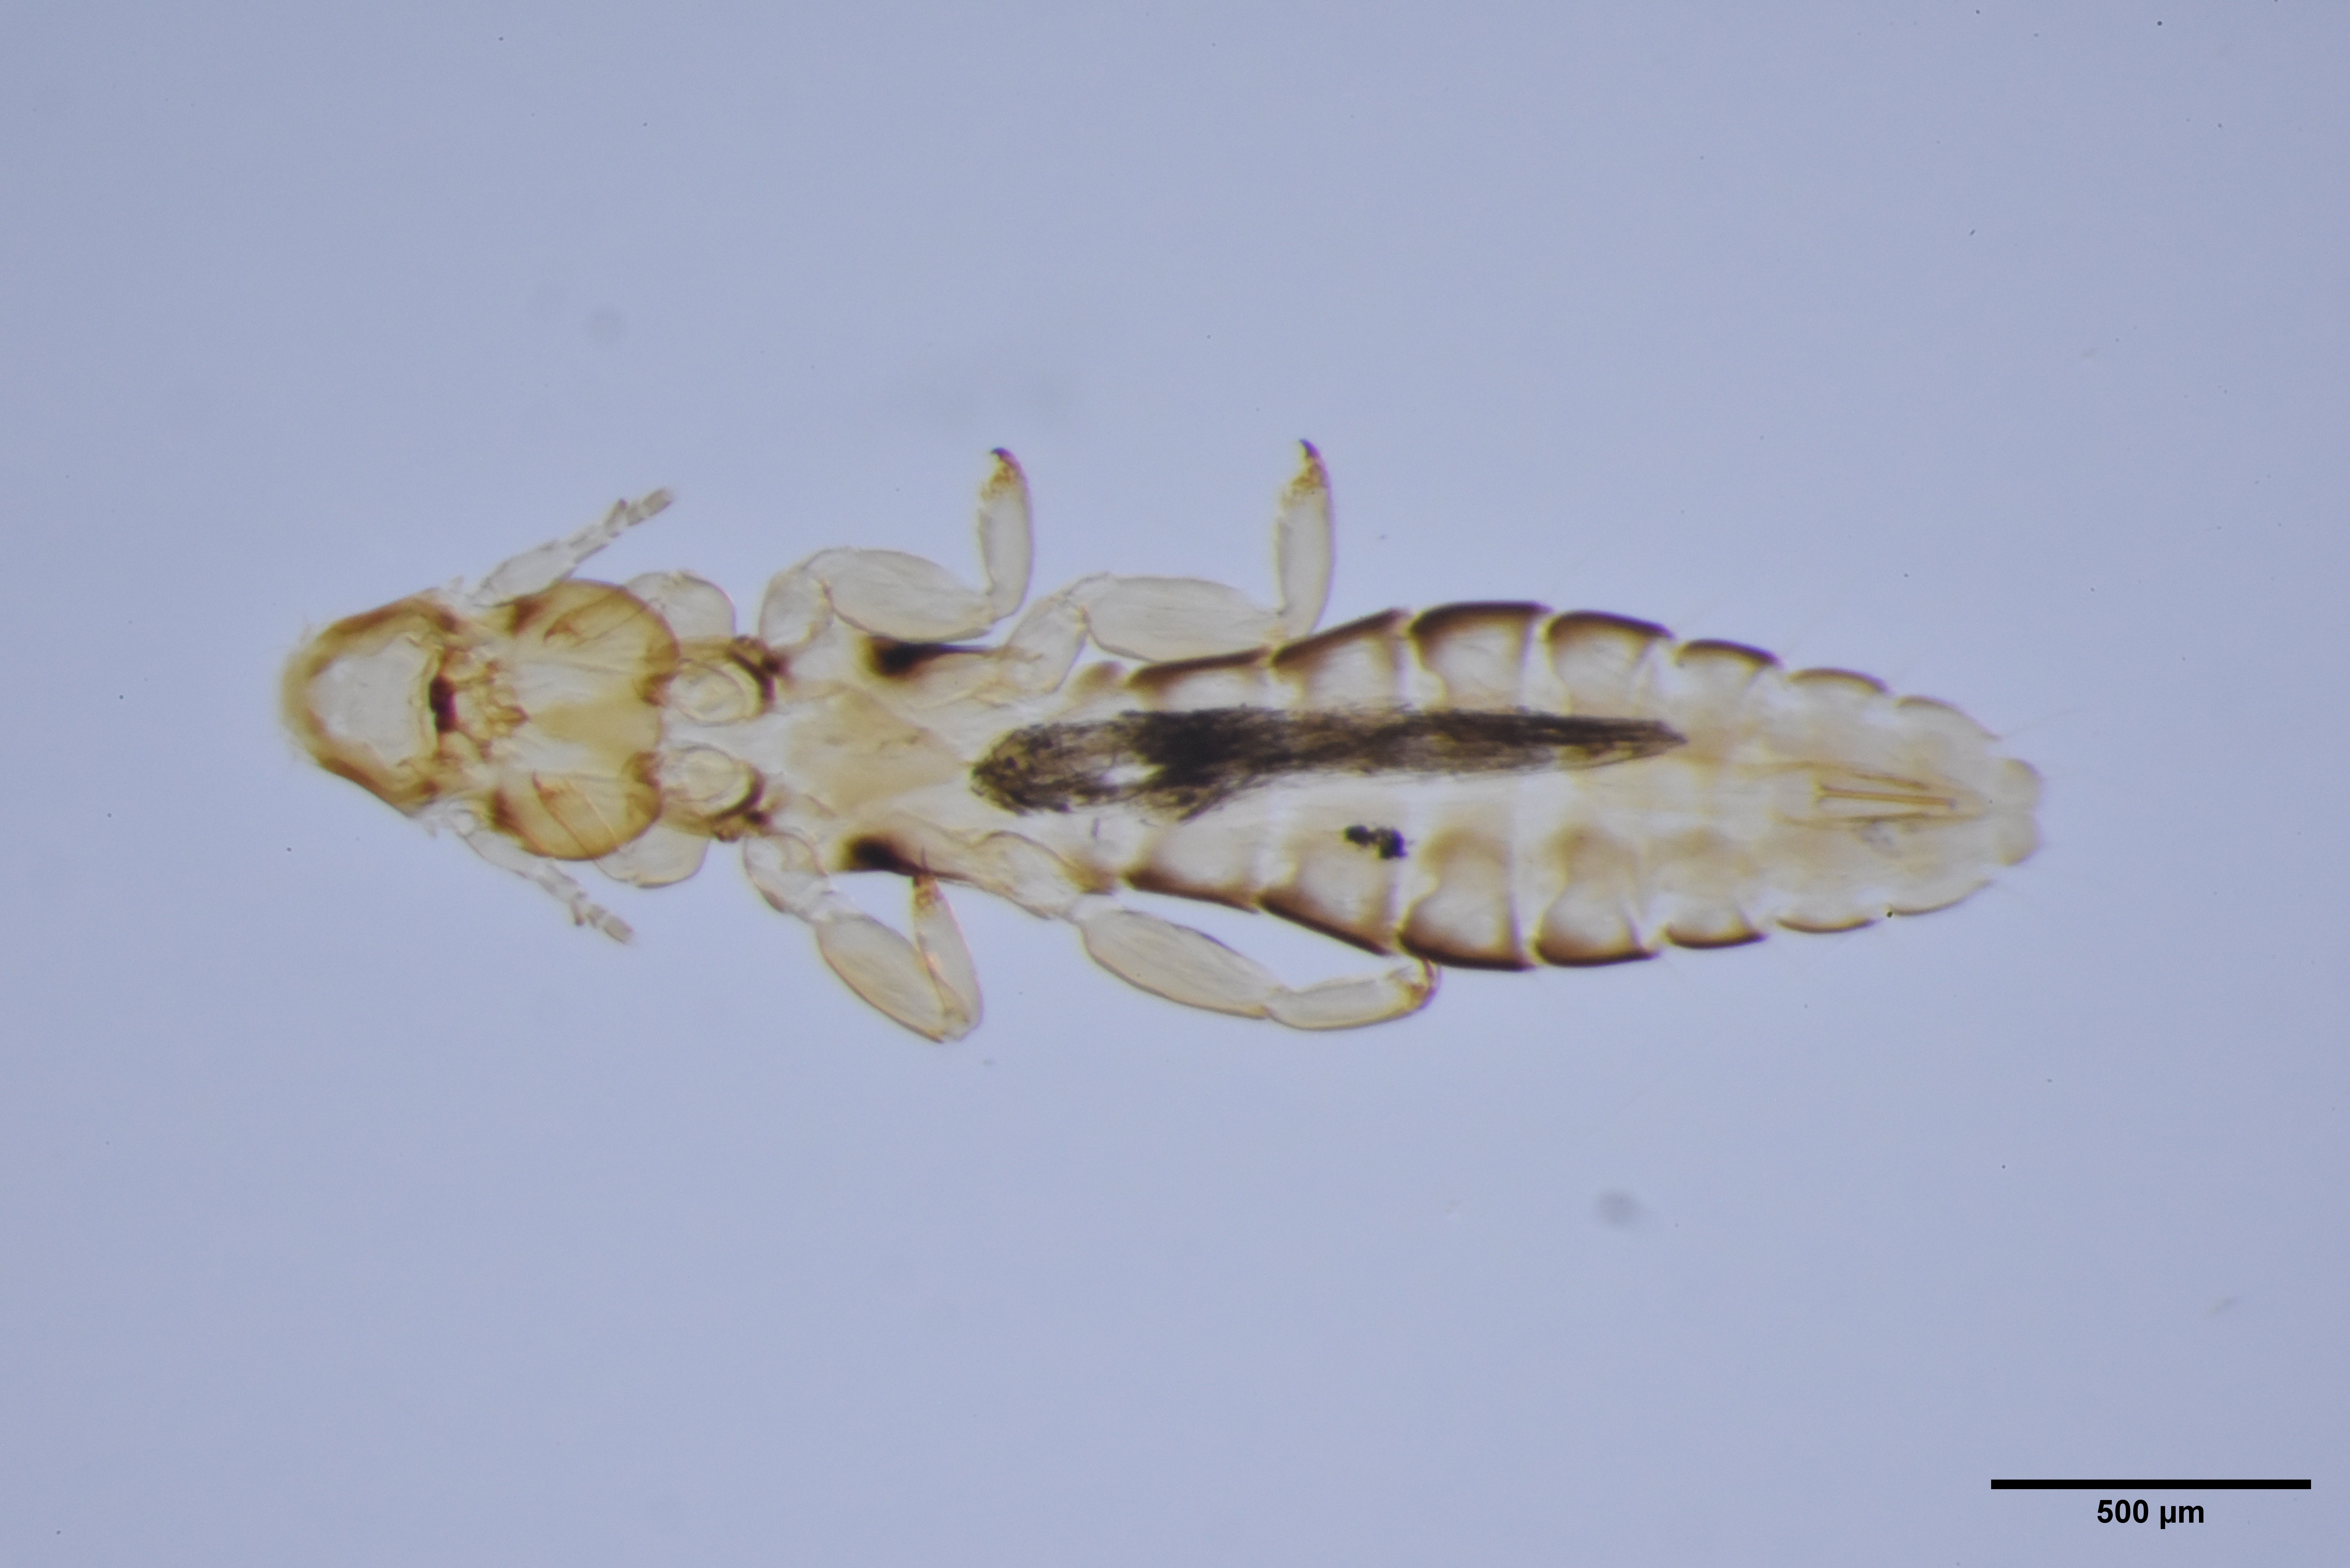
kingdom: Animalia
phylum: Arthropoda
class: Insecta
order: Psocodea
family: Philopteridae
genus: Anaticola
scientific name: Anaticola crassicorne
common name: Louse
